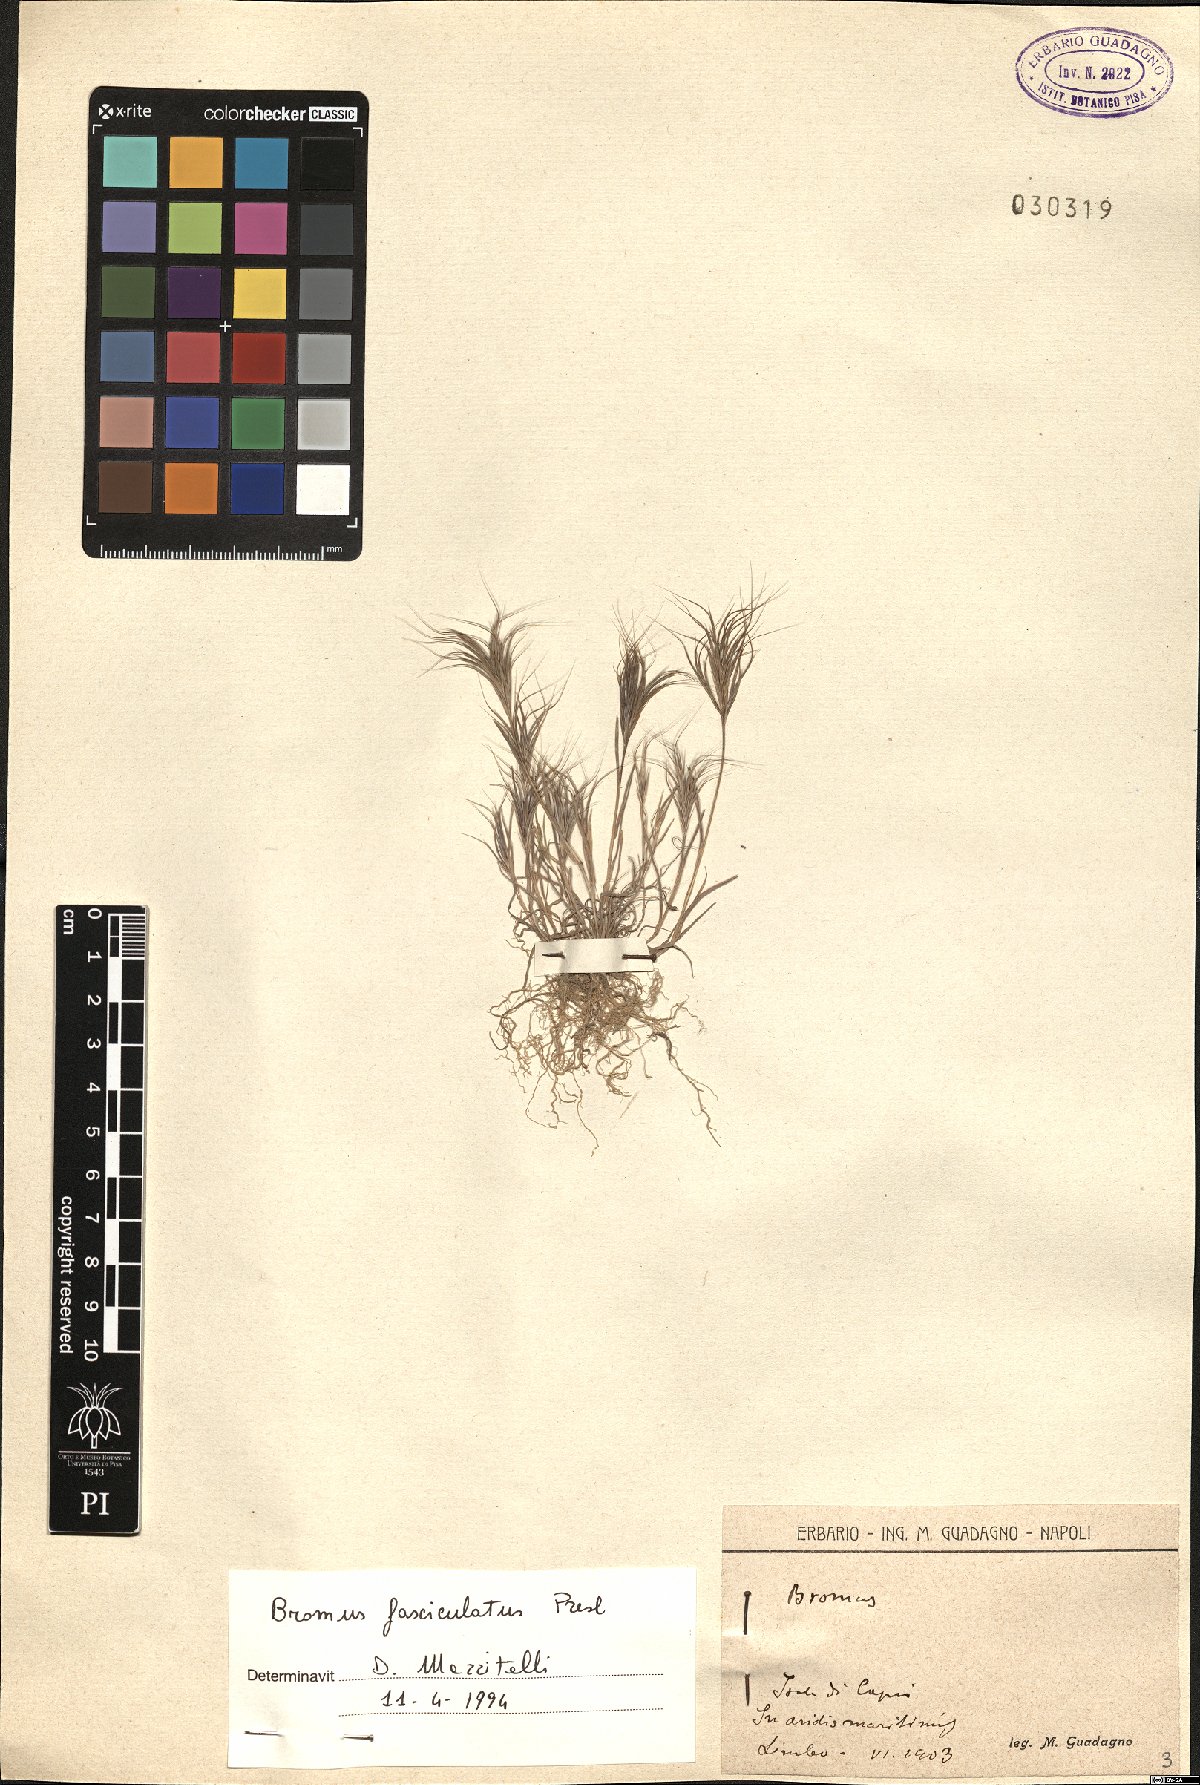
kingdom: Plantae
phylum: Tracheophyta
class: Liliopsida
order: Poales
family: Poaceae
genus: Bromus
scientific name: Bromus fasciculatus
